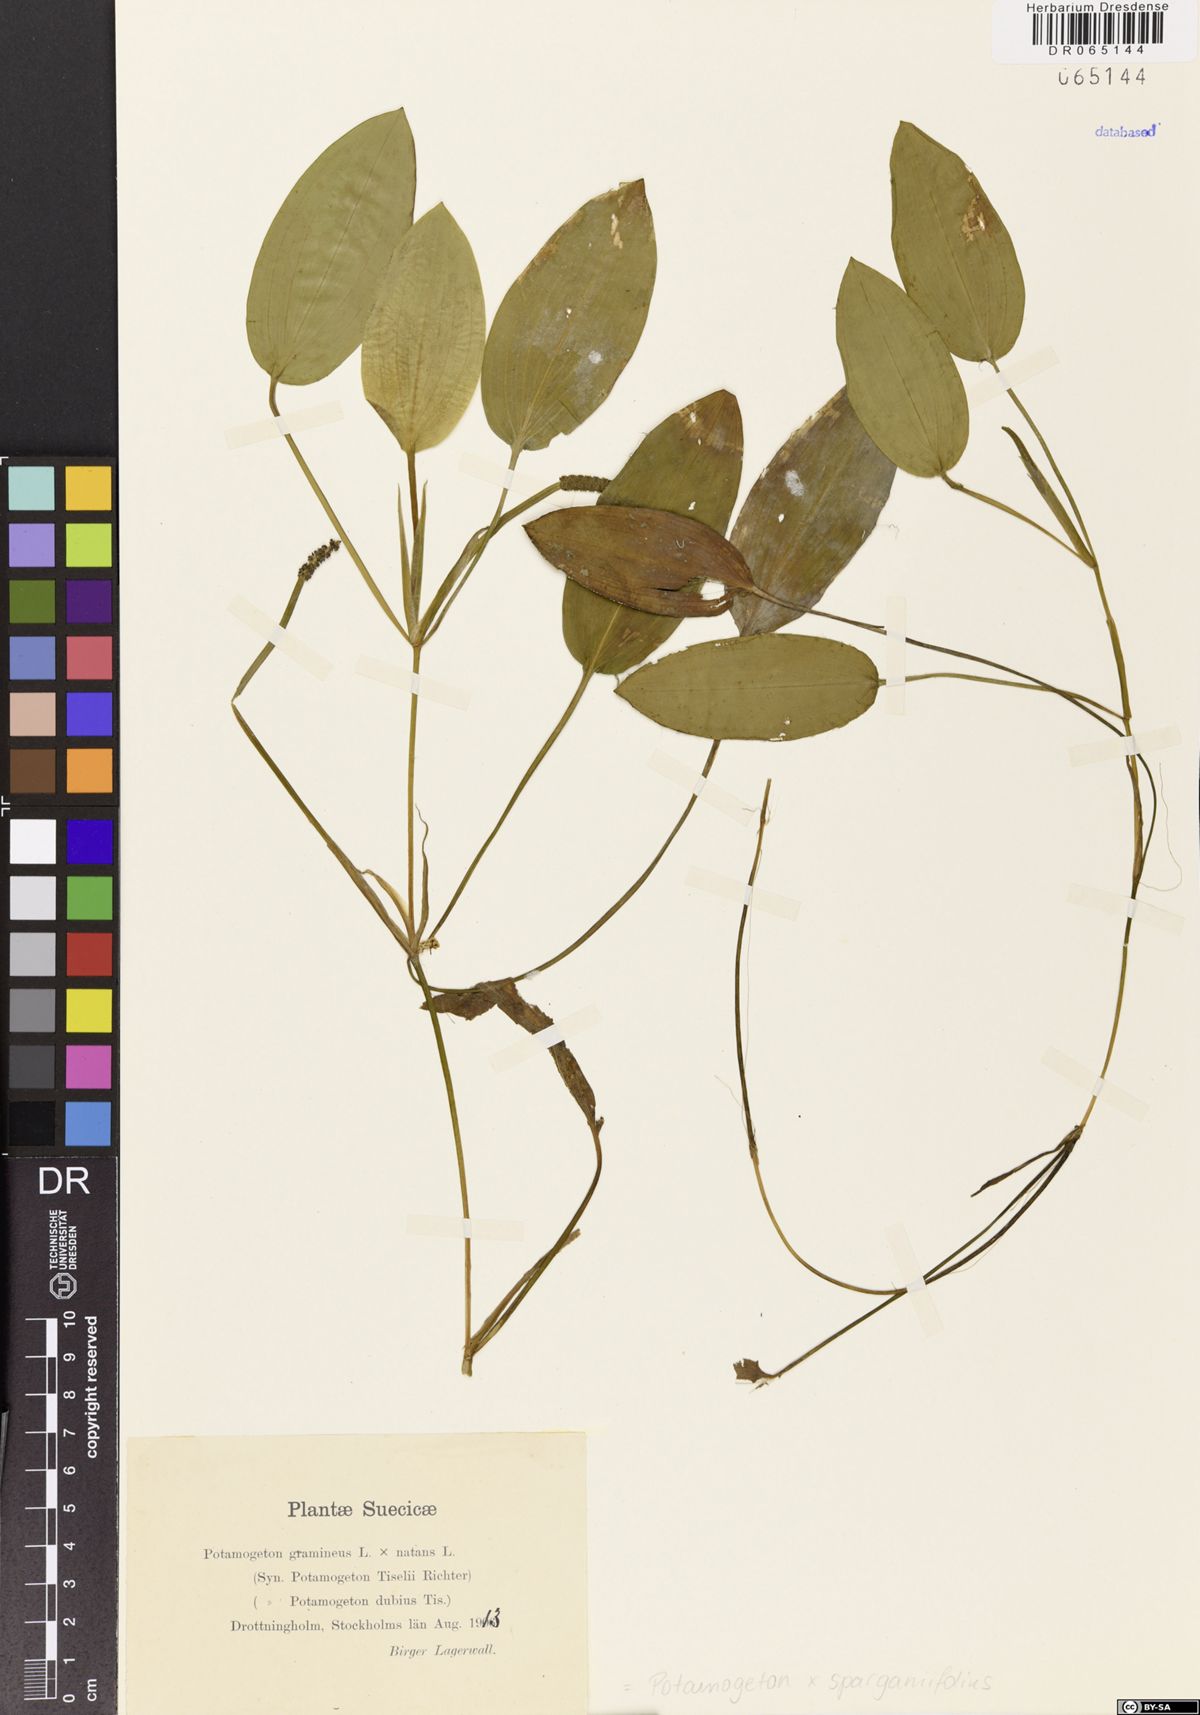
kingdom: Plantae
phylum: Tracheophyta
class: Liliopsida
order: Alismatales
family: Potamogetonaceae
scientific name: Potamogetonaceae
